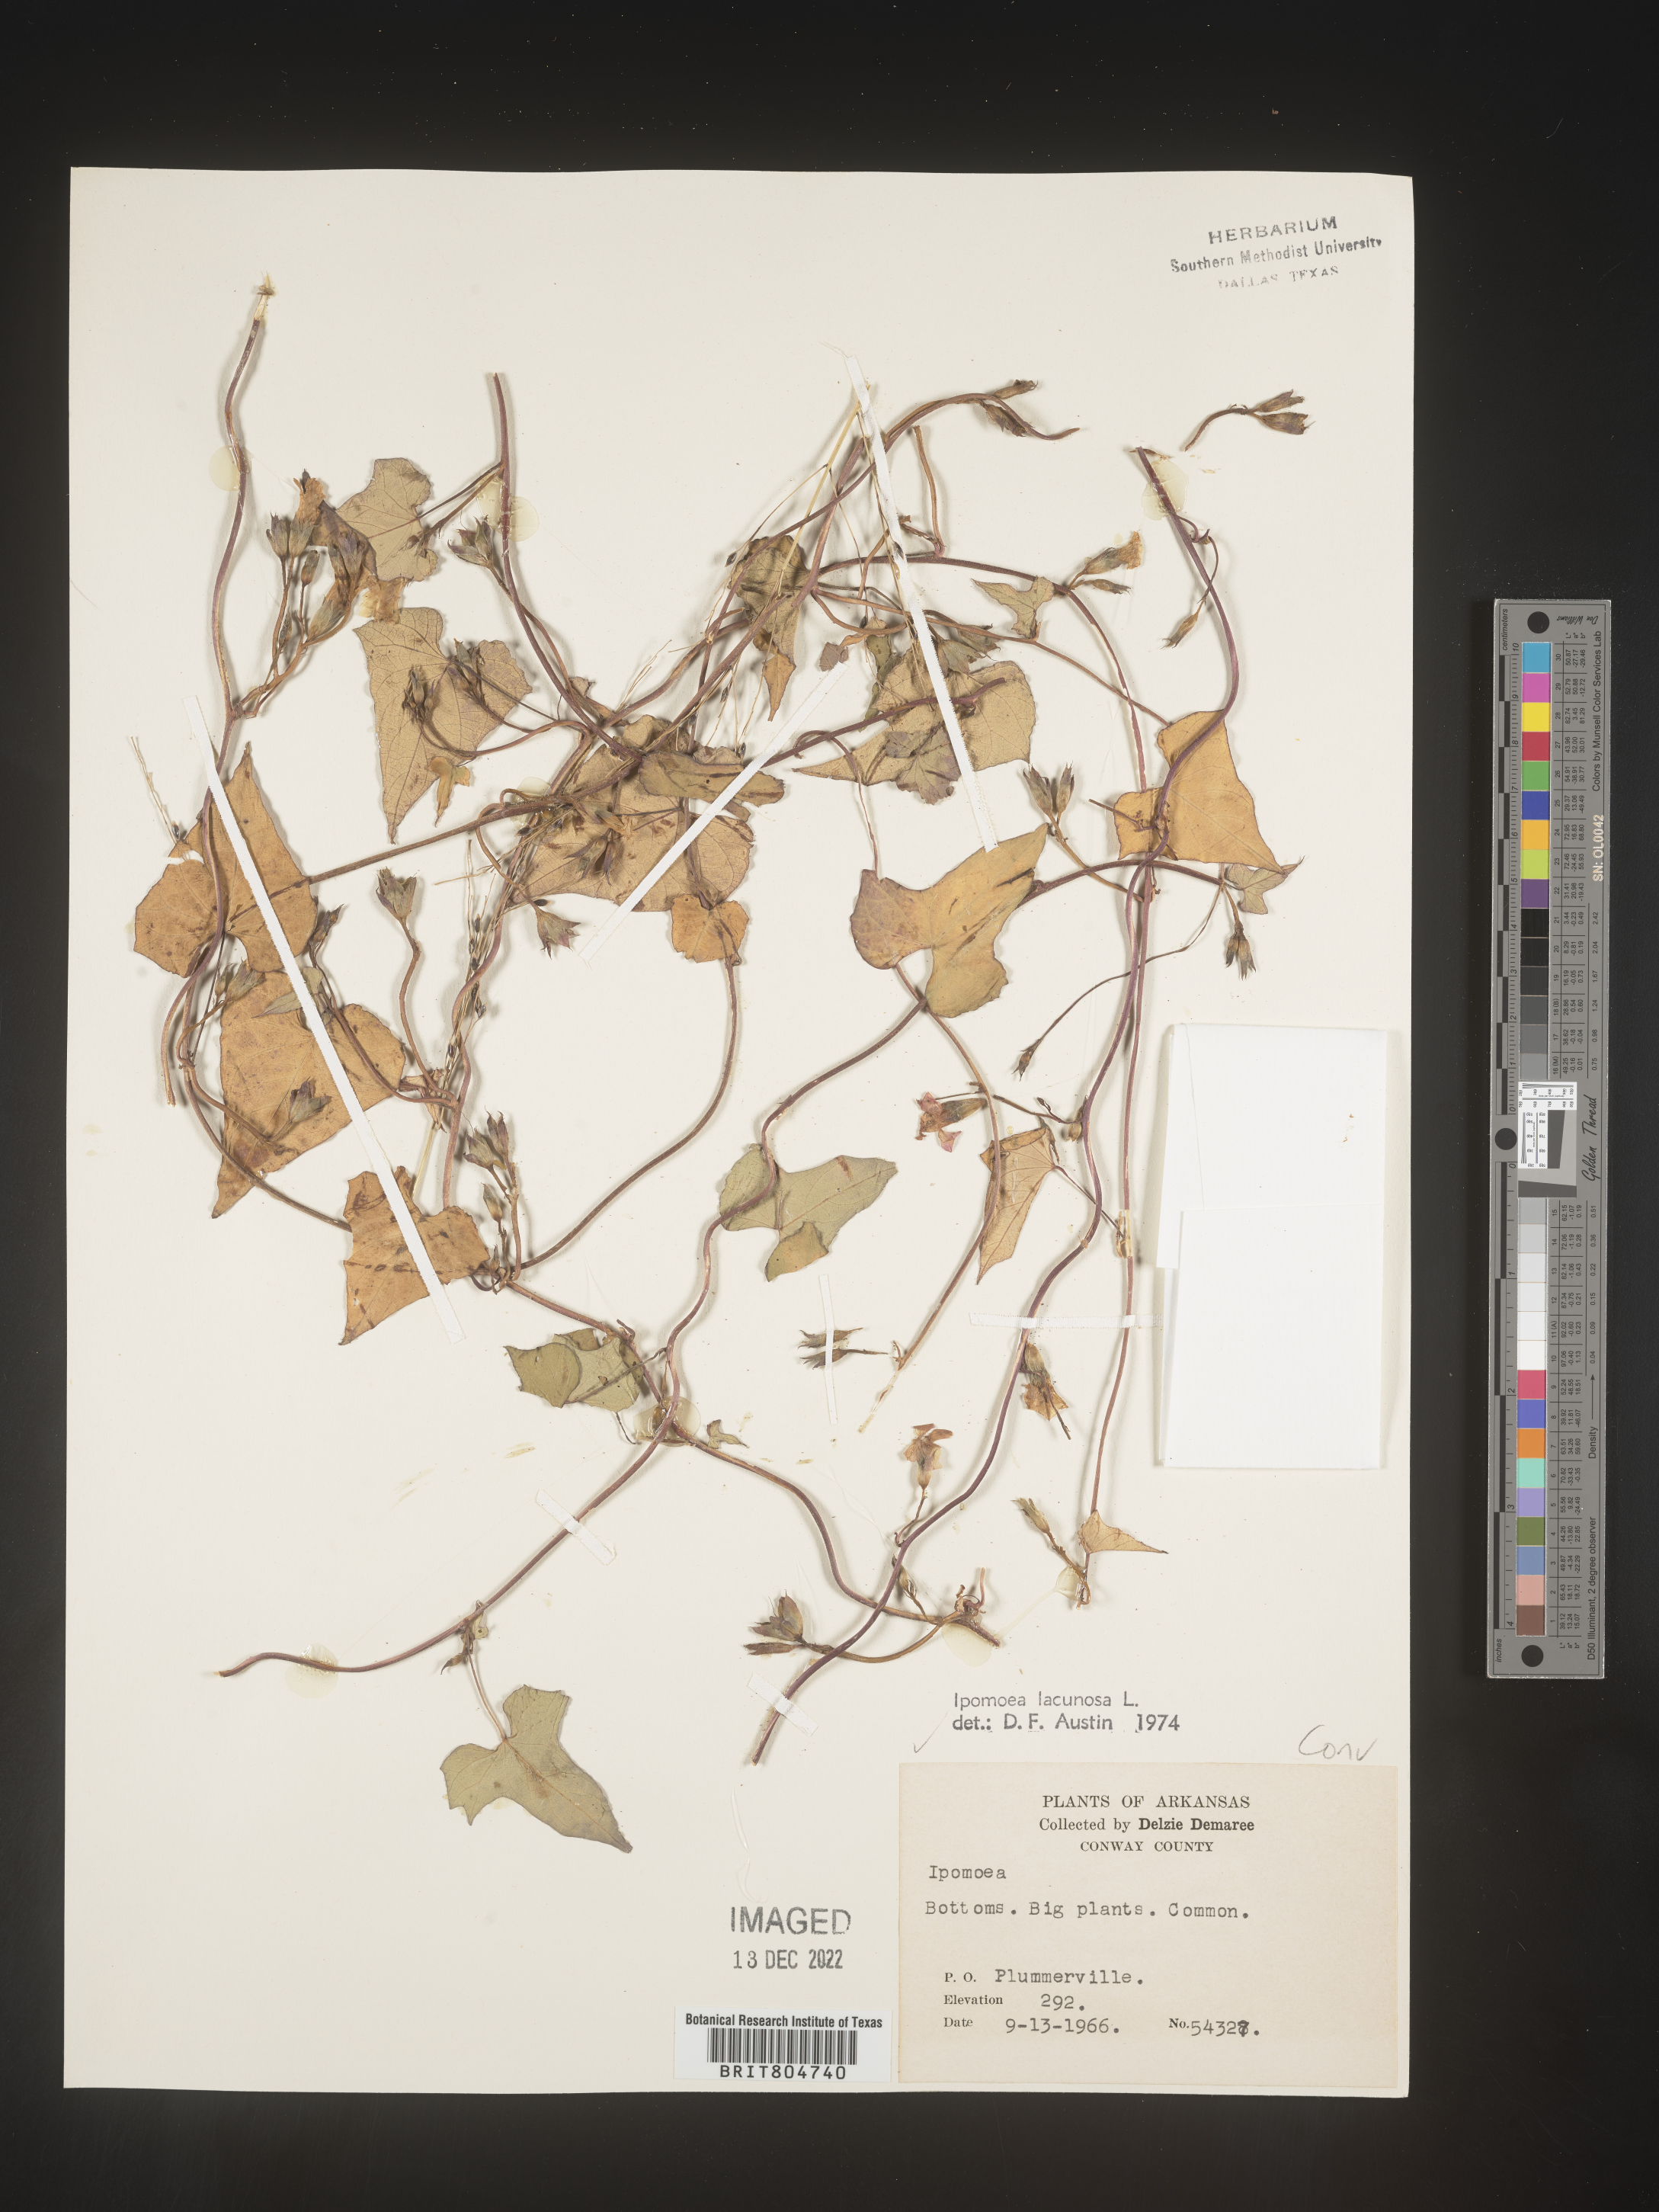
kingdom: Plantae
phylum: Tracheophyta
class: Magnoliopsida
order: Solanales
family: Convolvulaceae
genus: Ipomoea
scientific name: Ipomoea lacunosa
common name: White morning-glory
